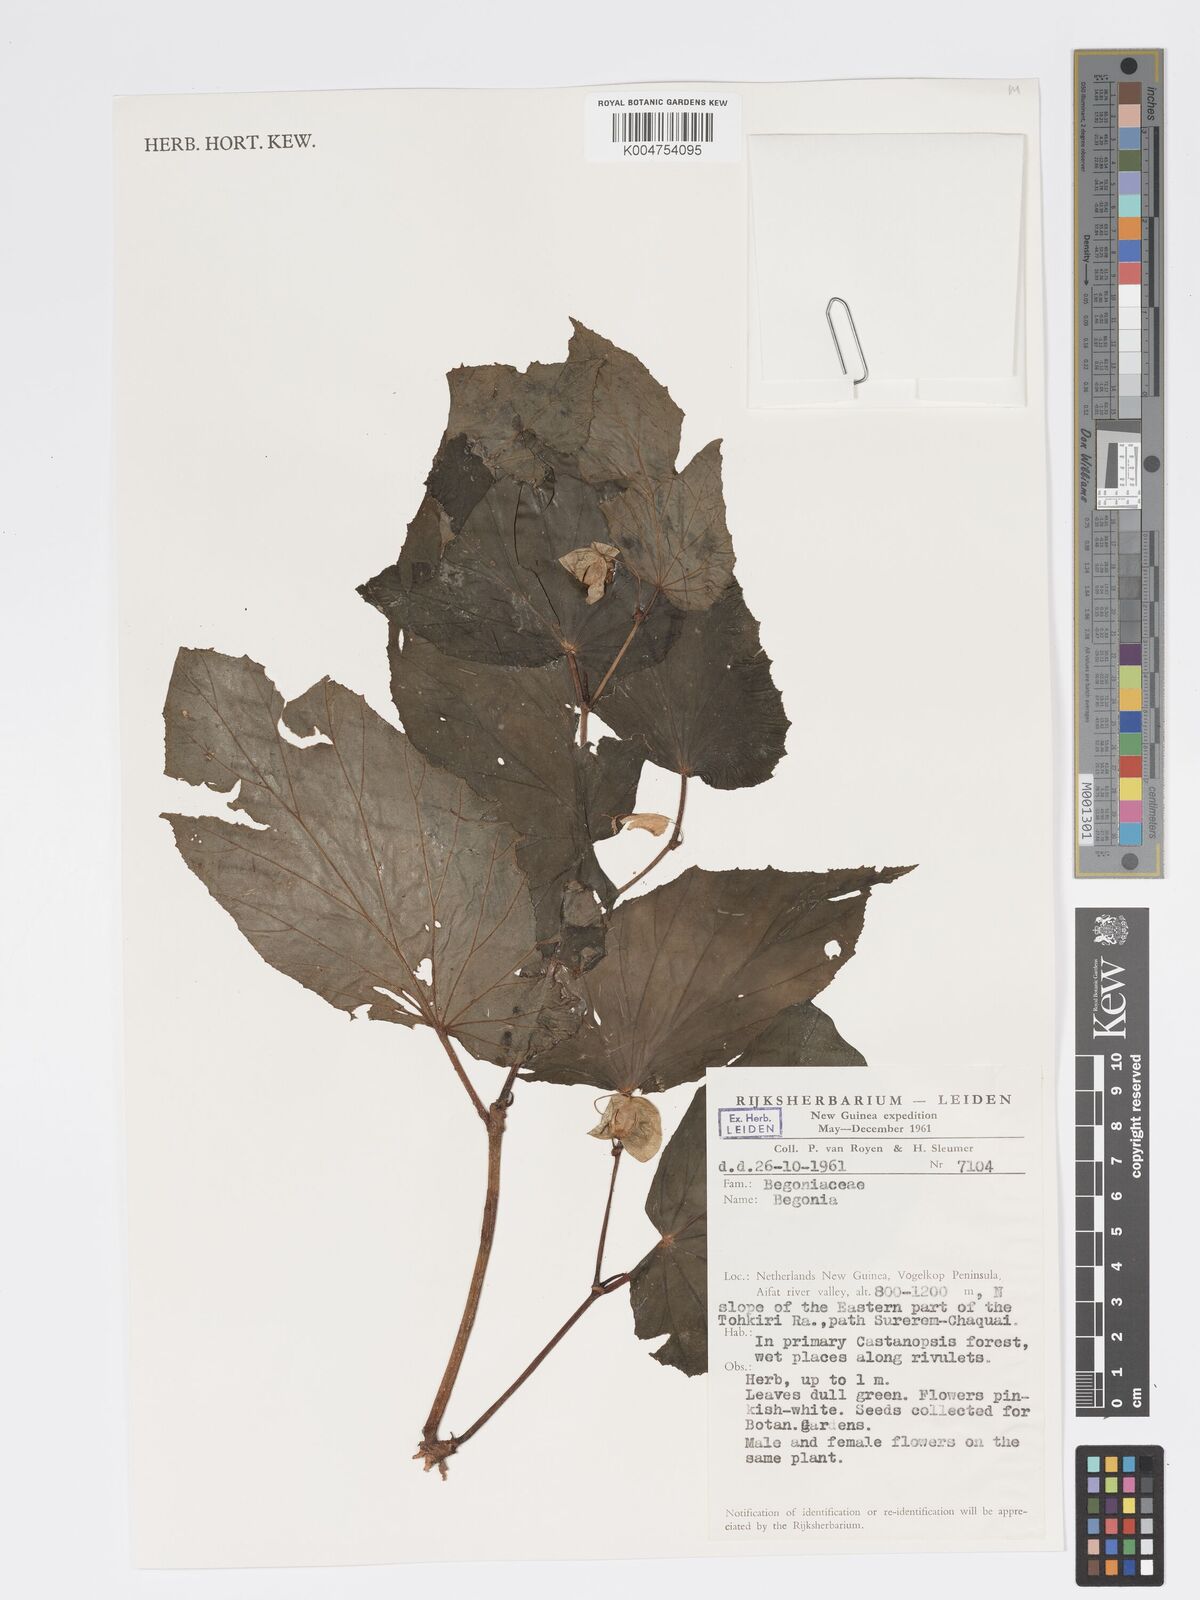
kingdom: Plantae
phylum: Tracheophyta
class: Magnoliopsida
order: Cucurbitales
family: Begoniaceae
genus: Begonia
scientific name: Begonia
